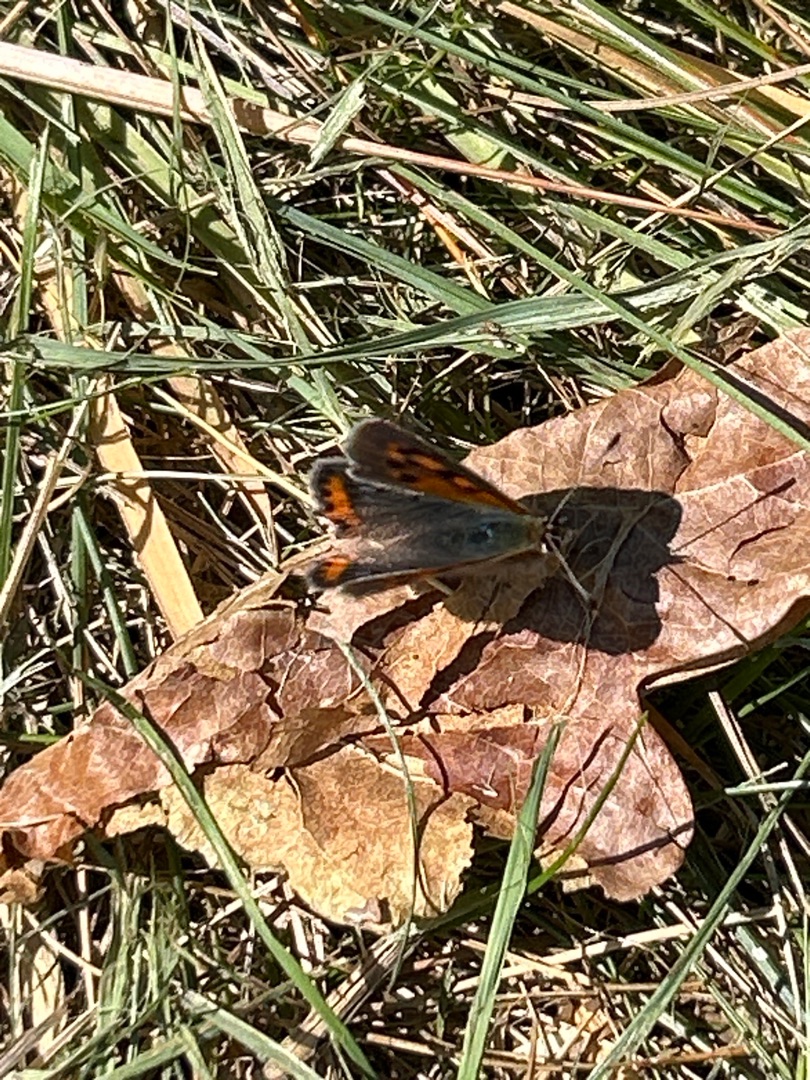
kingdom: Animalia
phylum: Arthropoda
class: Insecta
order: Lepidoptera
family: Lycaenidae
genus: Lycaena
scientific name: Lycaena phlaeas
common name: Lille ildfugl
